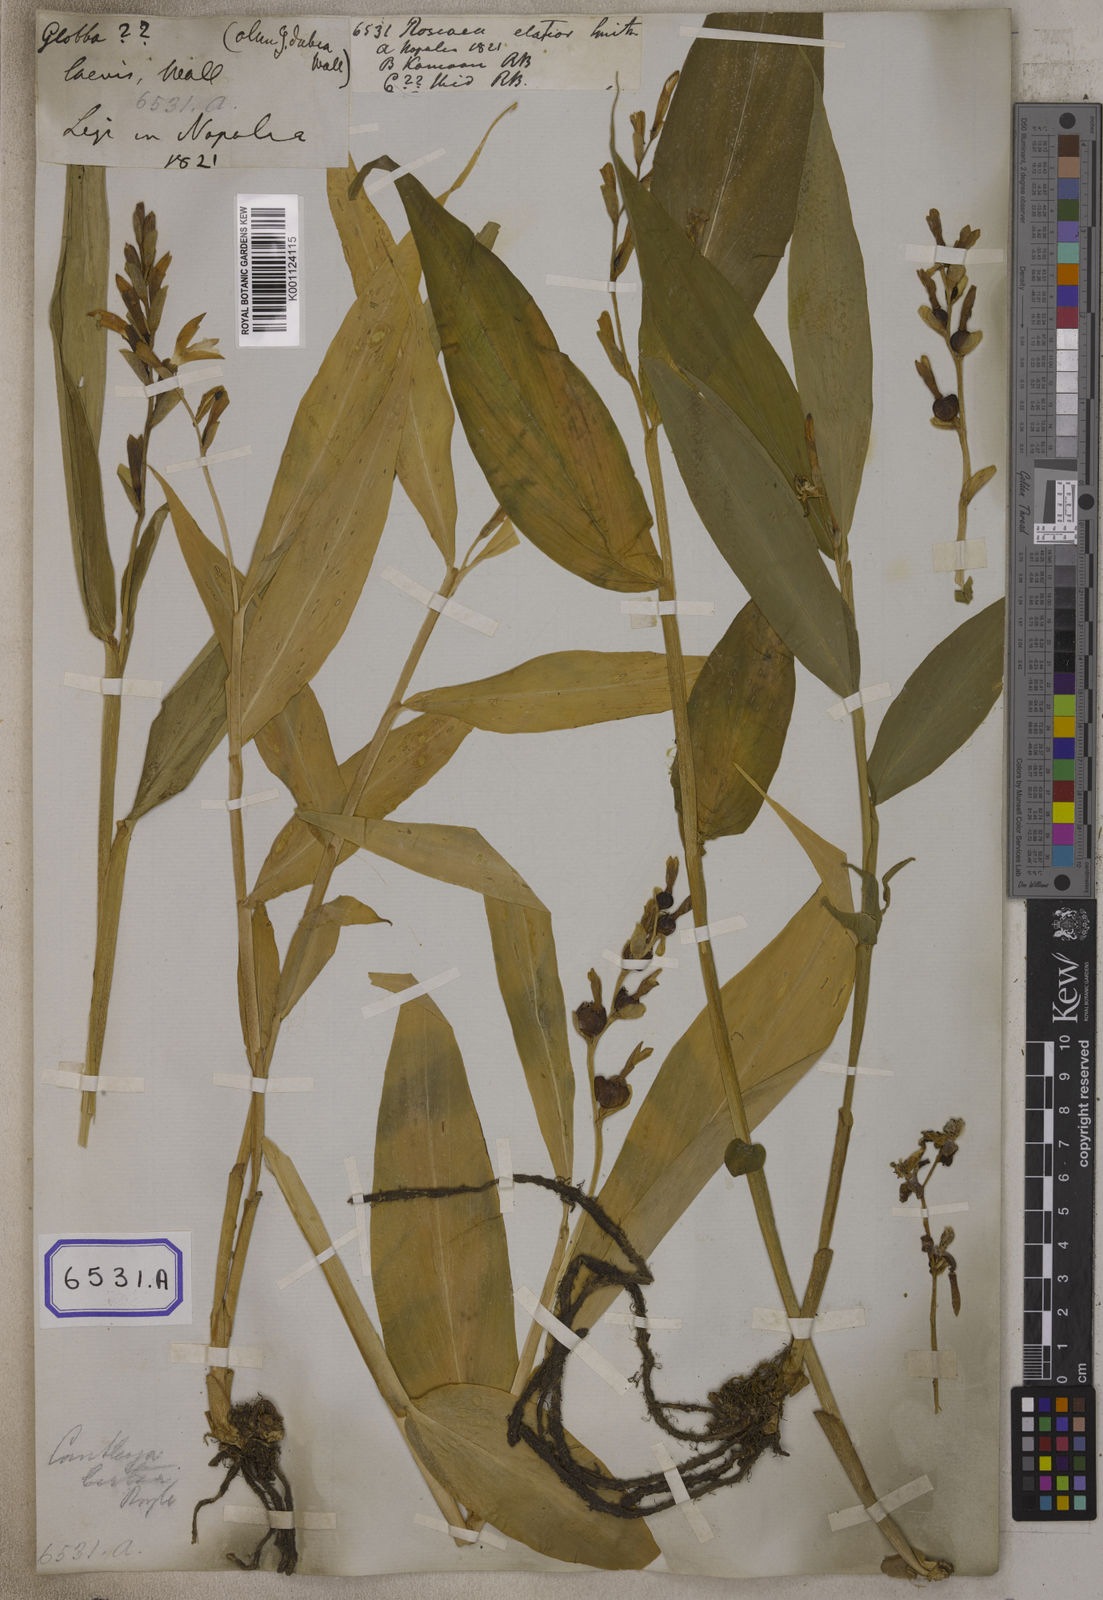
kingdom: Plantae
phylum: Tracheophyta
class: Liliopsida
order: Zingiberales
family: Zingiberaceae
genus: Cautleya
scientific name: Cautleya gracilis
